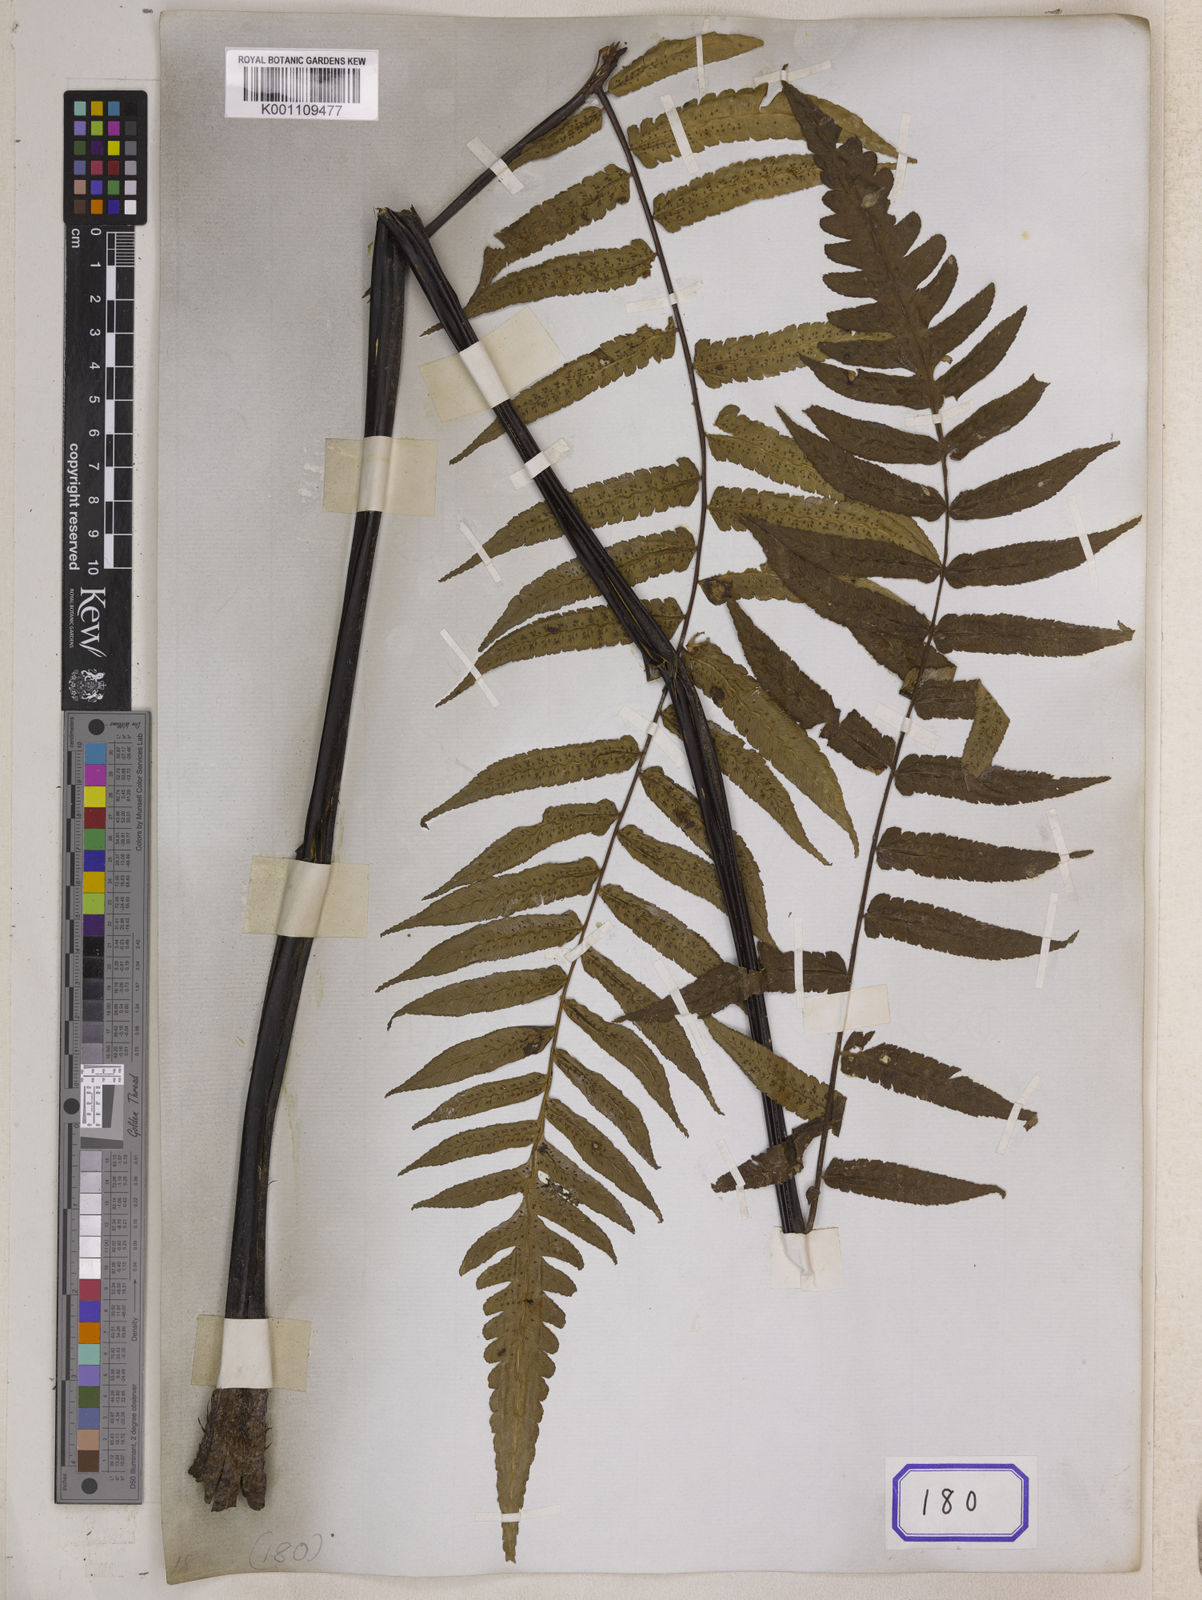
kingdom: Plantae
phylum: Tracheophyta
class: Polypodiopsida
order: Cyatheales
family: Cyatheaceae
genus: Gymnosphaera
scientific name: Gymnosphaera gigantea
